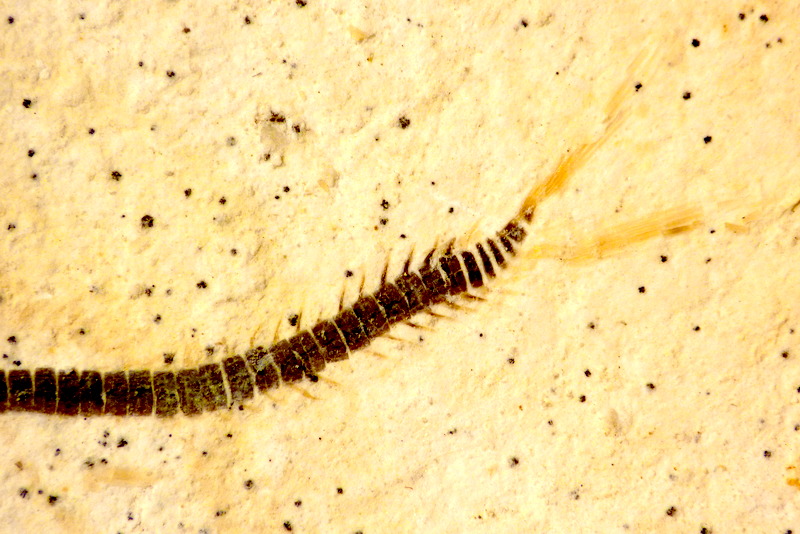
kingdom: Animalia
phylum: Chordata
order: Salmoniformes
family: Orthogonikleithridae
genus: Orthogonikleithrus
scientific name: Orthogonikleithrus hoelli
